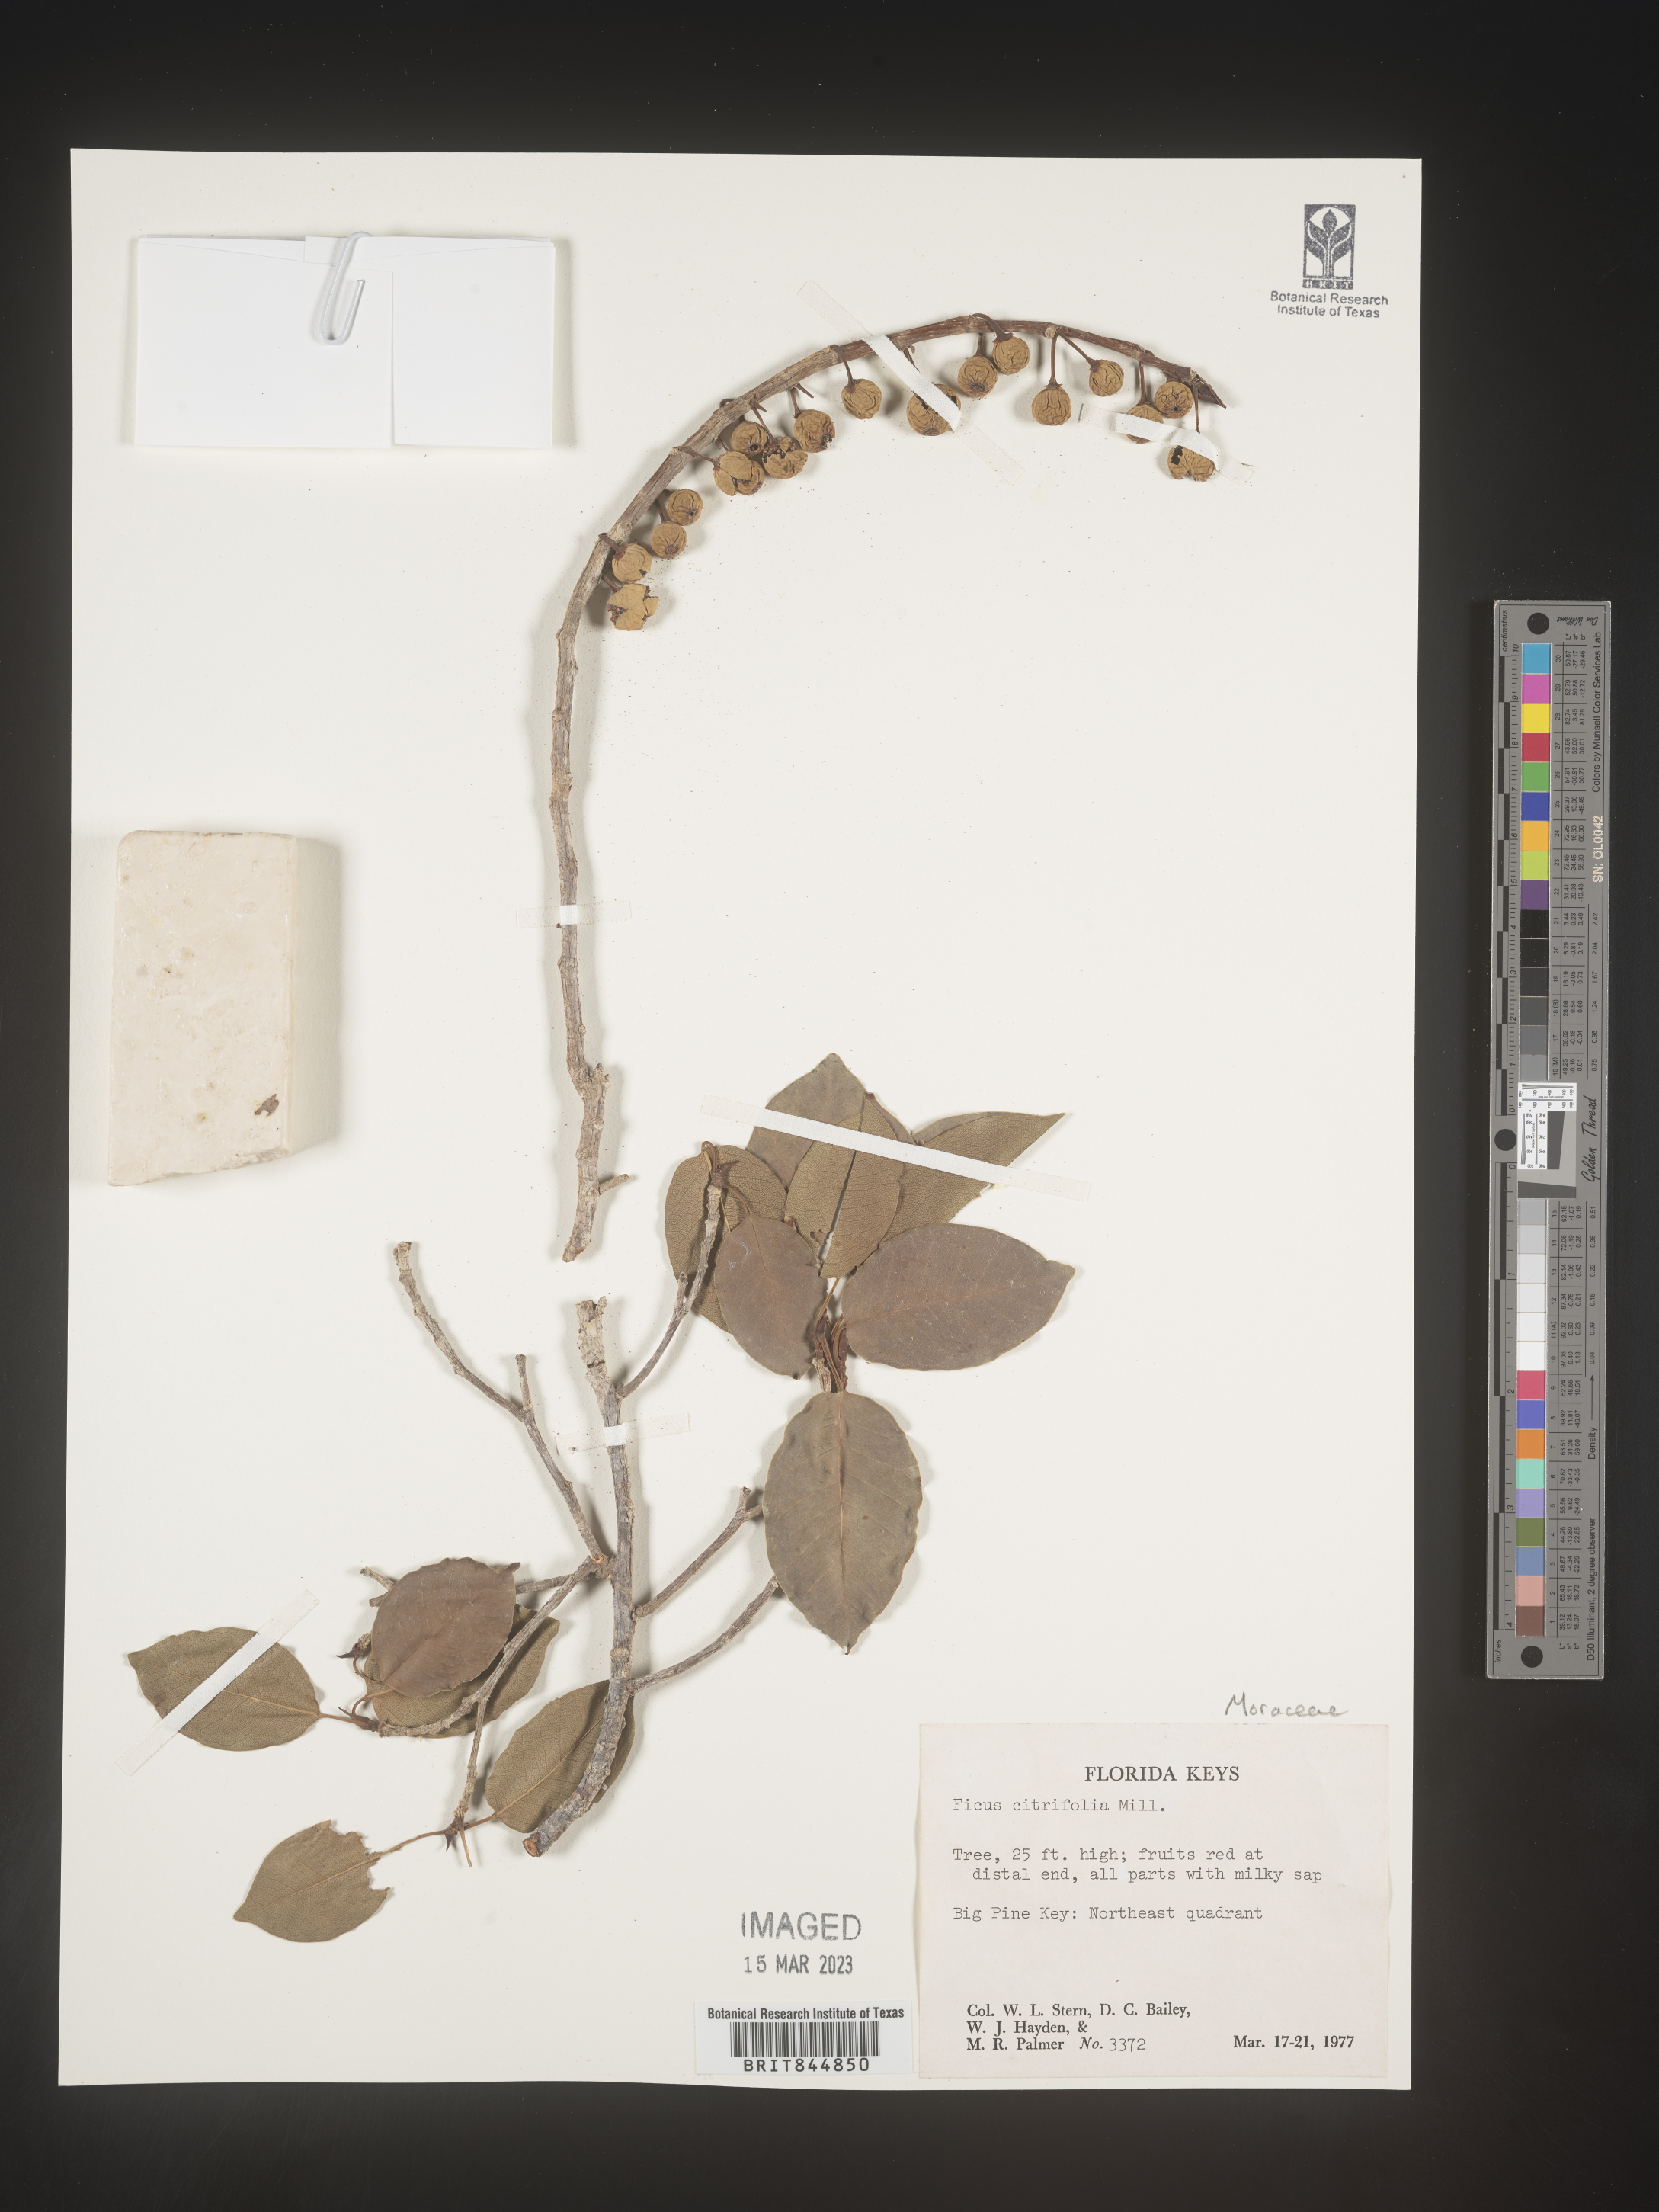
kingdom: Plantae
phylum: Tracheophyta
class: Magnoliopsida
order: Rosales
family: Moraceae
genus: Ficus
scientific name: Ficus
